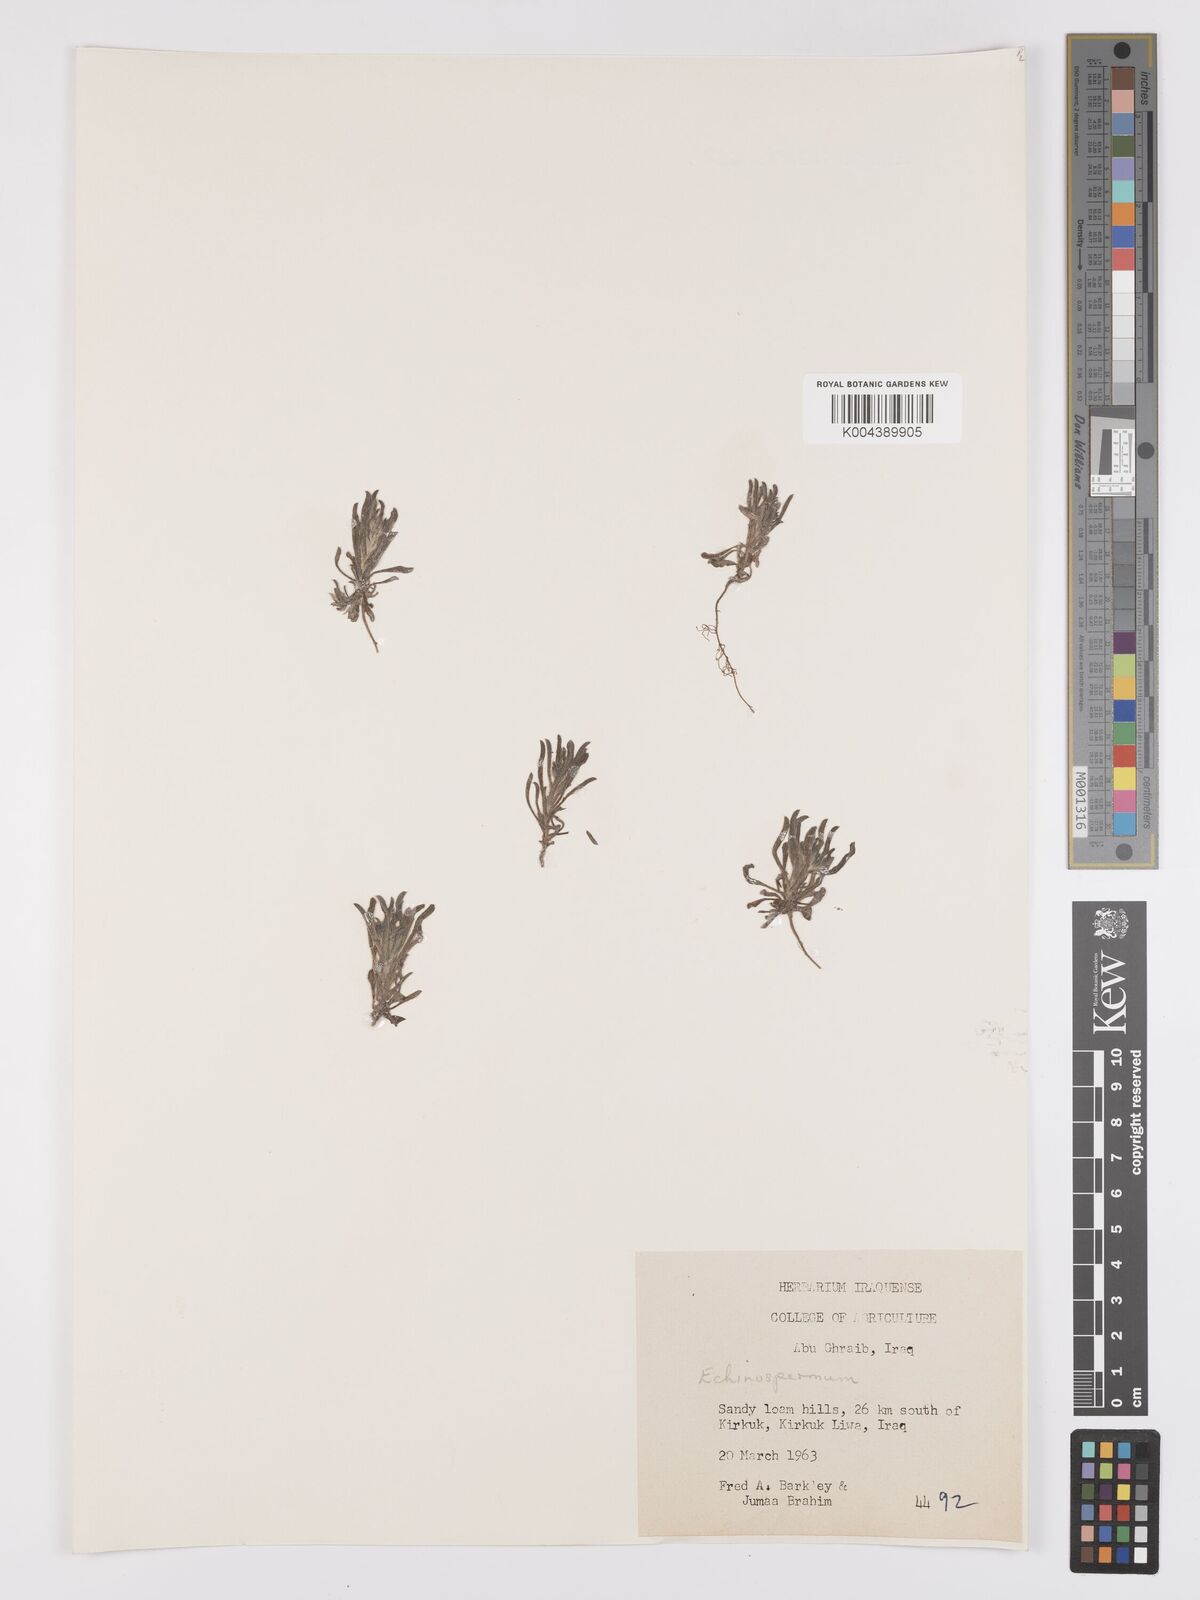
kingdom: Plantae
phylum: Tracheophyta
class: Magnoliopsida
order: Boraginales
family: Boraginaceae
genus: Pseudoheterocaryum
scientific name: Pseudoheterocaryum szovitsianum
